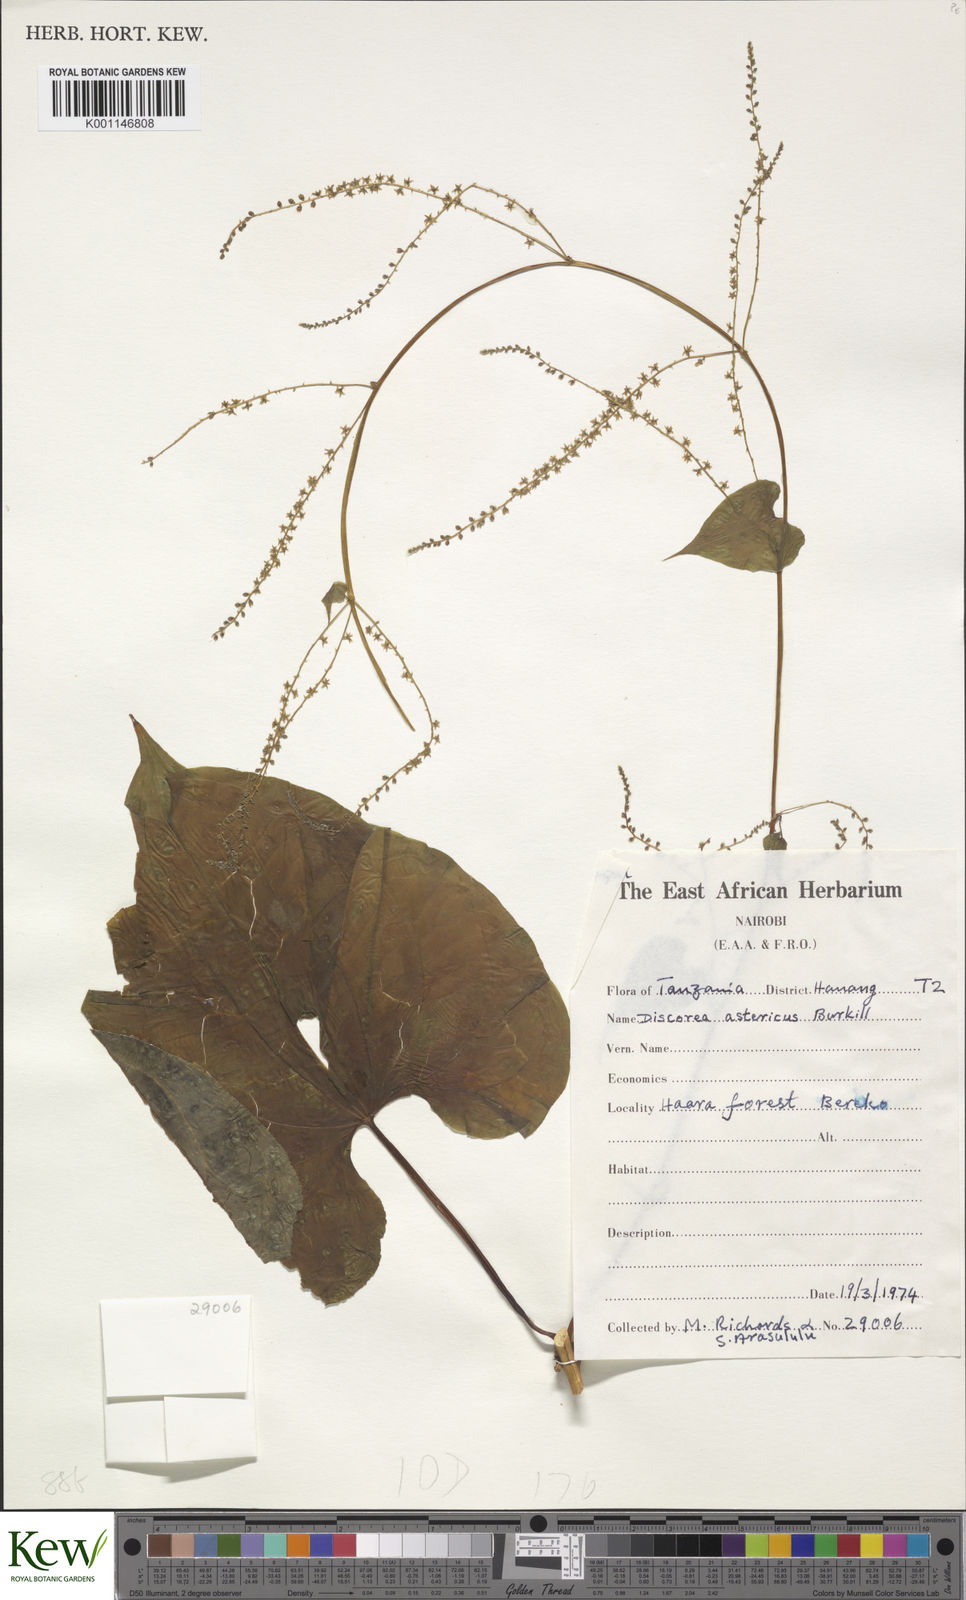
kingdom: Plantae
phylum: Tracheophyta
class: Liliopsida
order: Dioscoreales
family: Dioscoreaceae
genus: Dioscorea
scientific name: Dioscorea asteriscus
